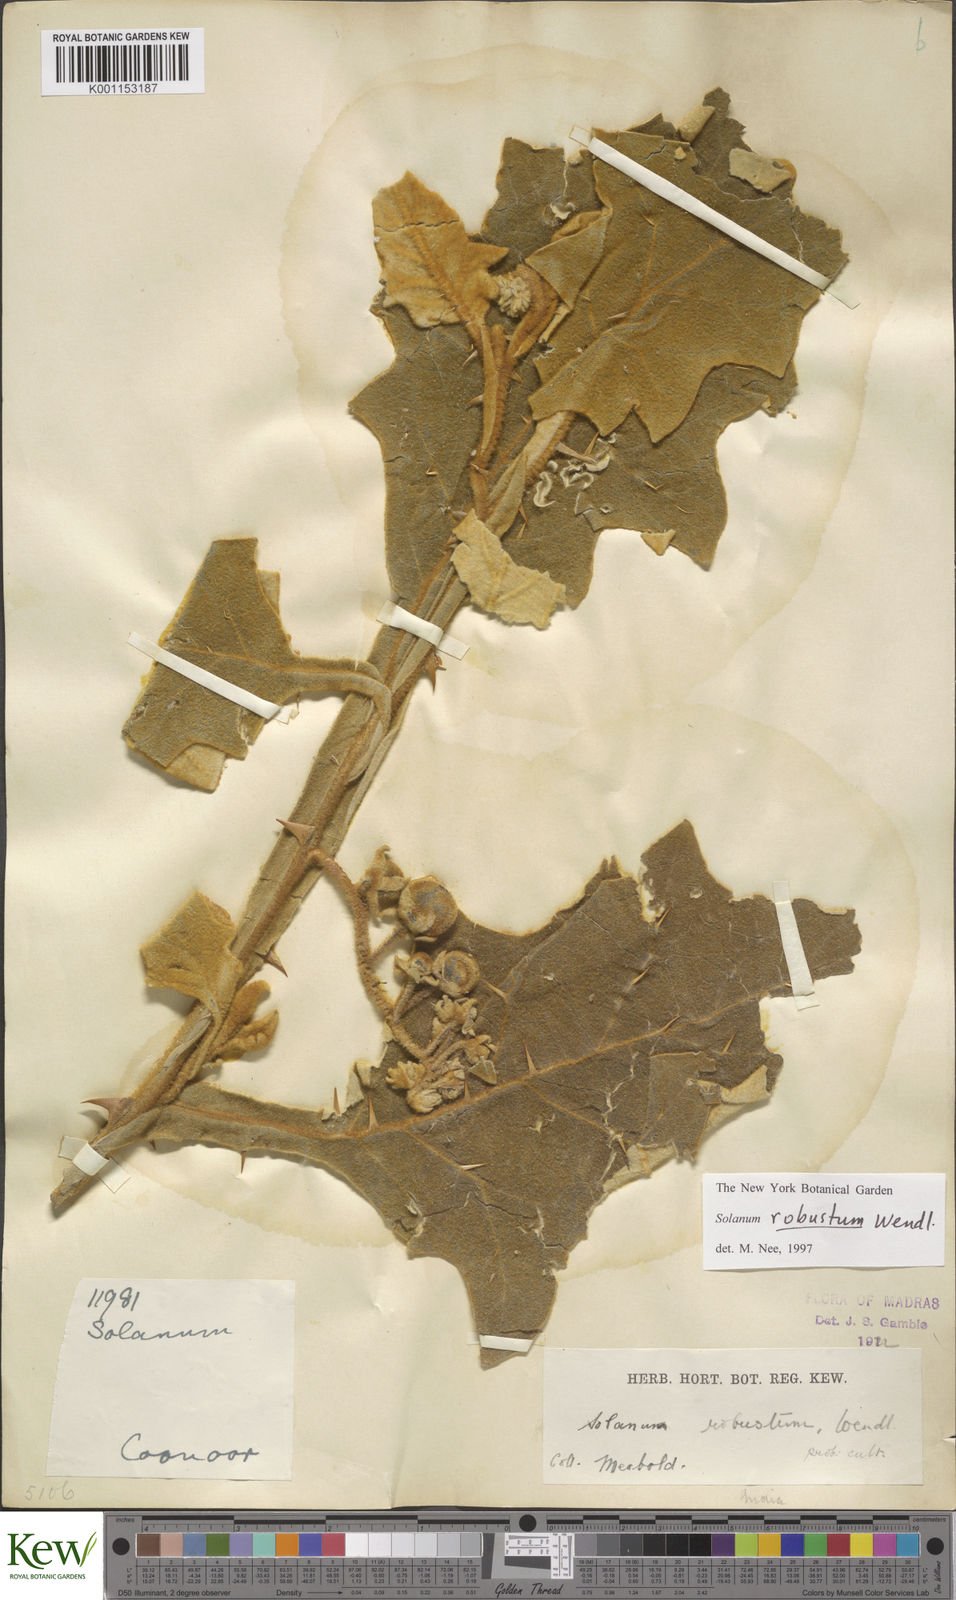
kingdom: Plantae
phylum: Tracheophyta
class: Magnoliopsida
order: Solanales
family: Solanaceae
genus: Solanum
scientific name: Solanum robustum
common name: Shrubby nightshade
